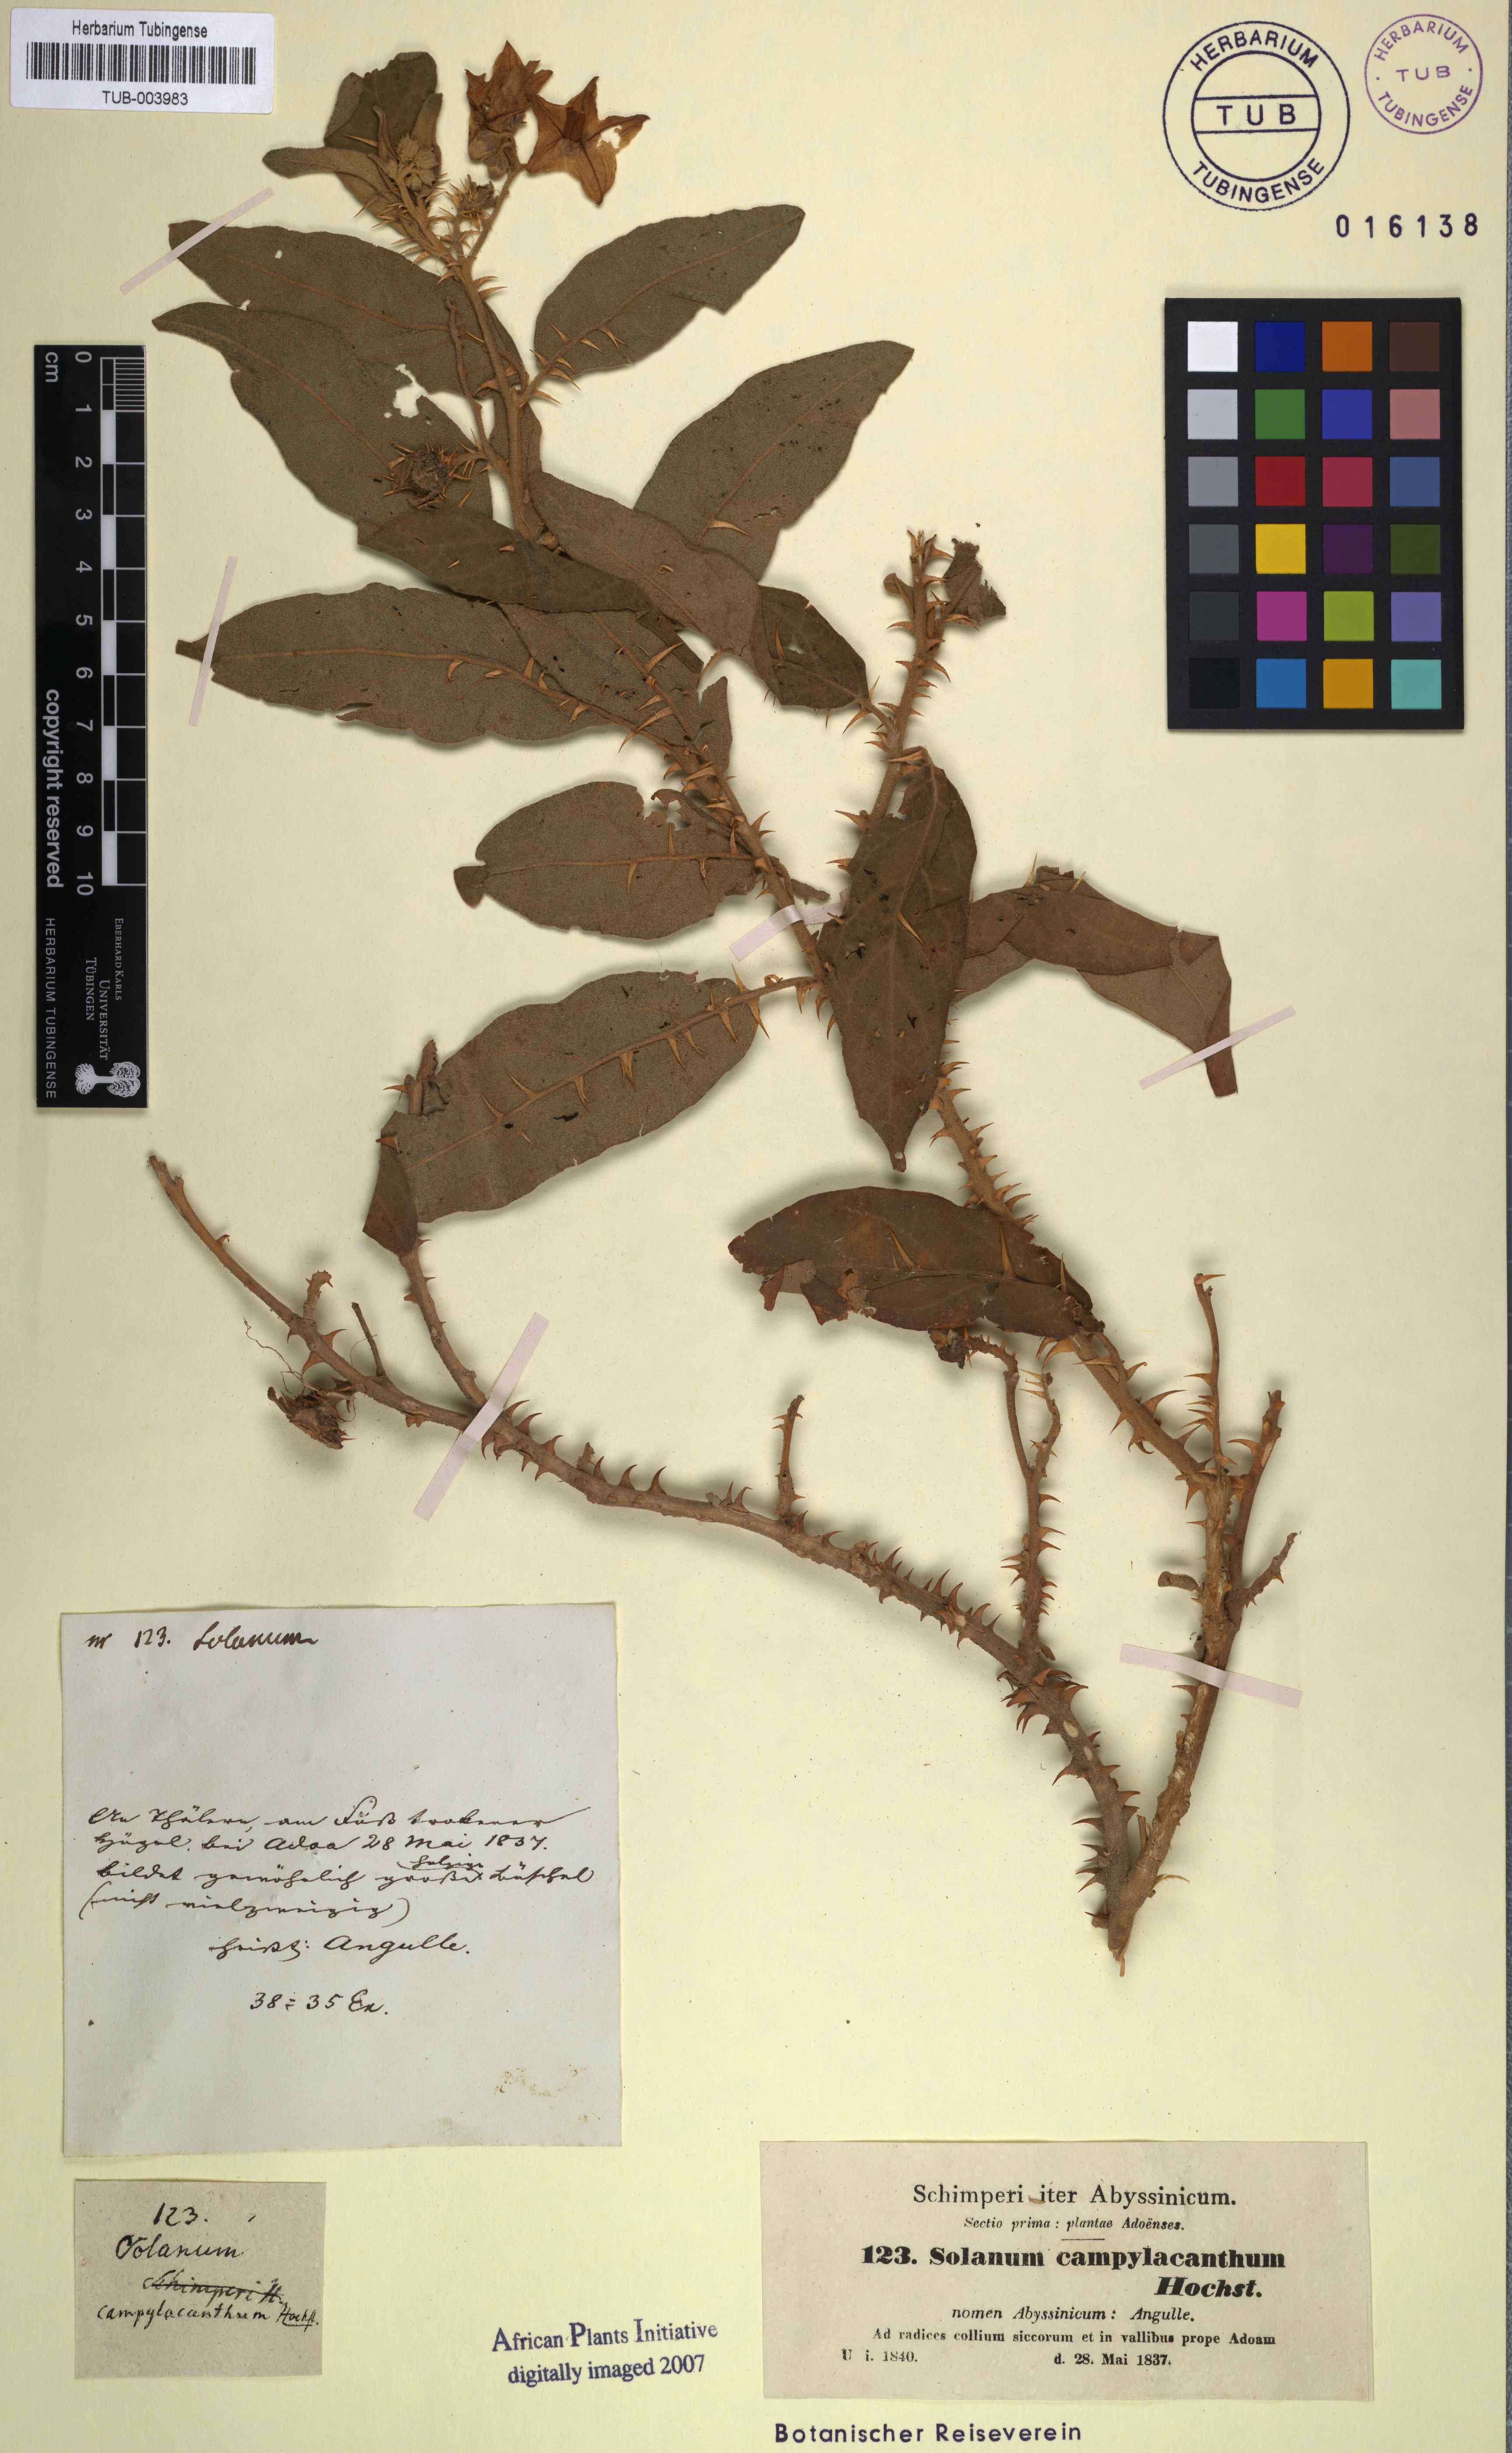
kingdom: Plantae
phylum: Tracheophyta
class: Magnoliopsida
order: Solanales
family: Solanaceae
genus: Solanum
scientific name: Solanum campylacanthum
